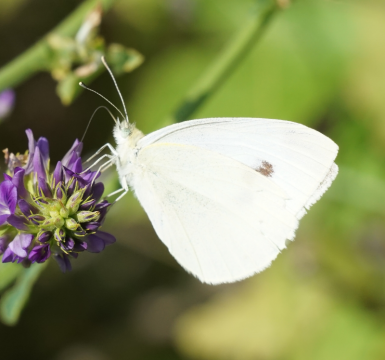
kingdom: Animalia
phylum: Arthropoda
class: Insecta
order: Lepidoptera
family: Pieridae
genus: Pieris
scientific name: Pieris rapae
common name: Cabbage White
